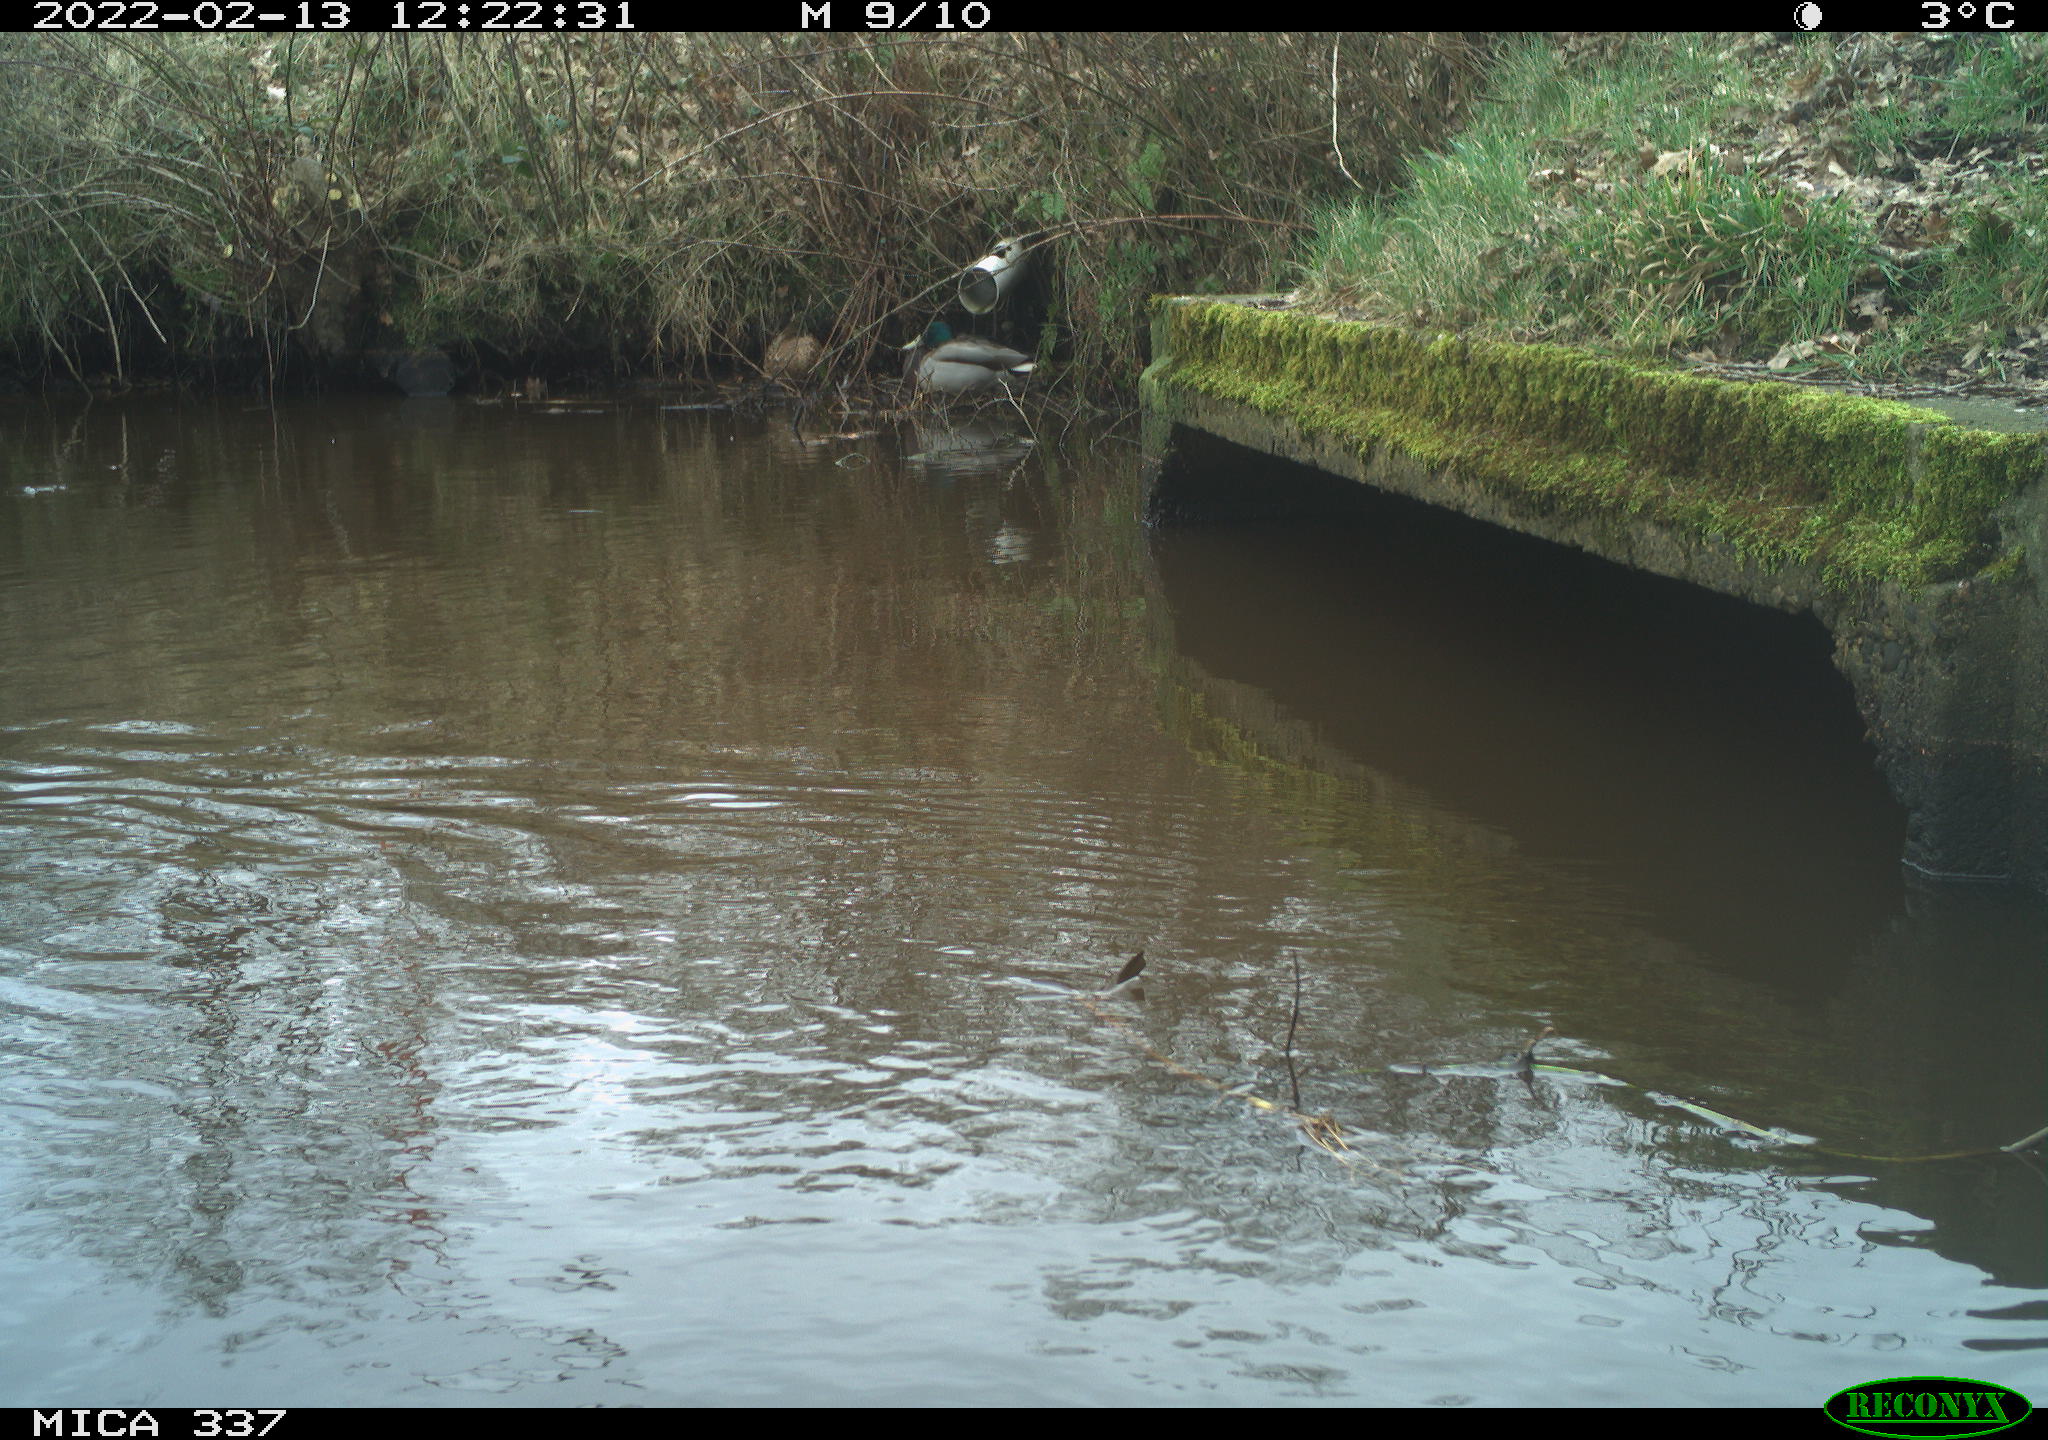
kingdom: Animalia
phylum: Chordata
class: Aves
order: Gruiformes
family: Rallidae
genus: Gallinula
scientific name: Gallinula chloropus
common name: Common moorhen
